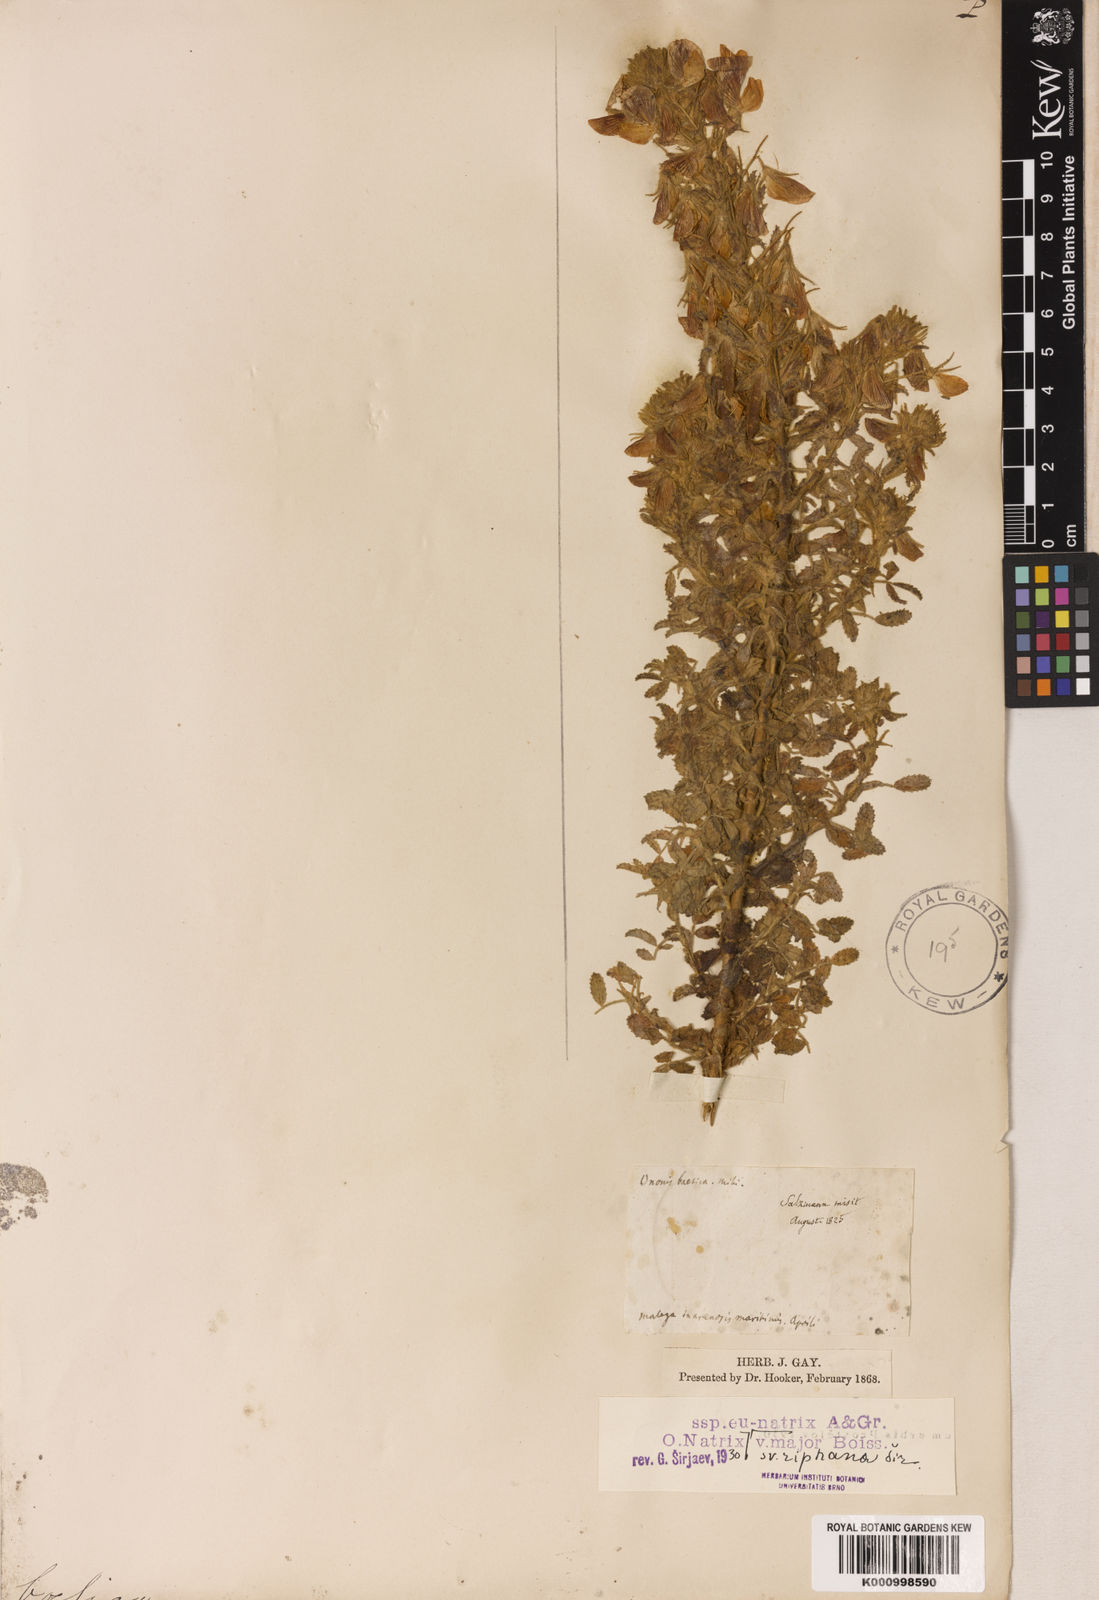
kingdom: Plantae
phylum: Tracheophyta
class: Magnoliopsida
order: Fabales
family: Fabaceae
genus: Ononis
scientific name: Ononis natrix
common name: Yellow restharrow
